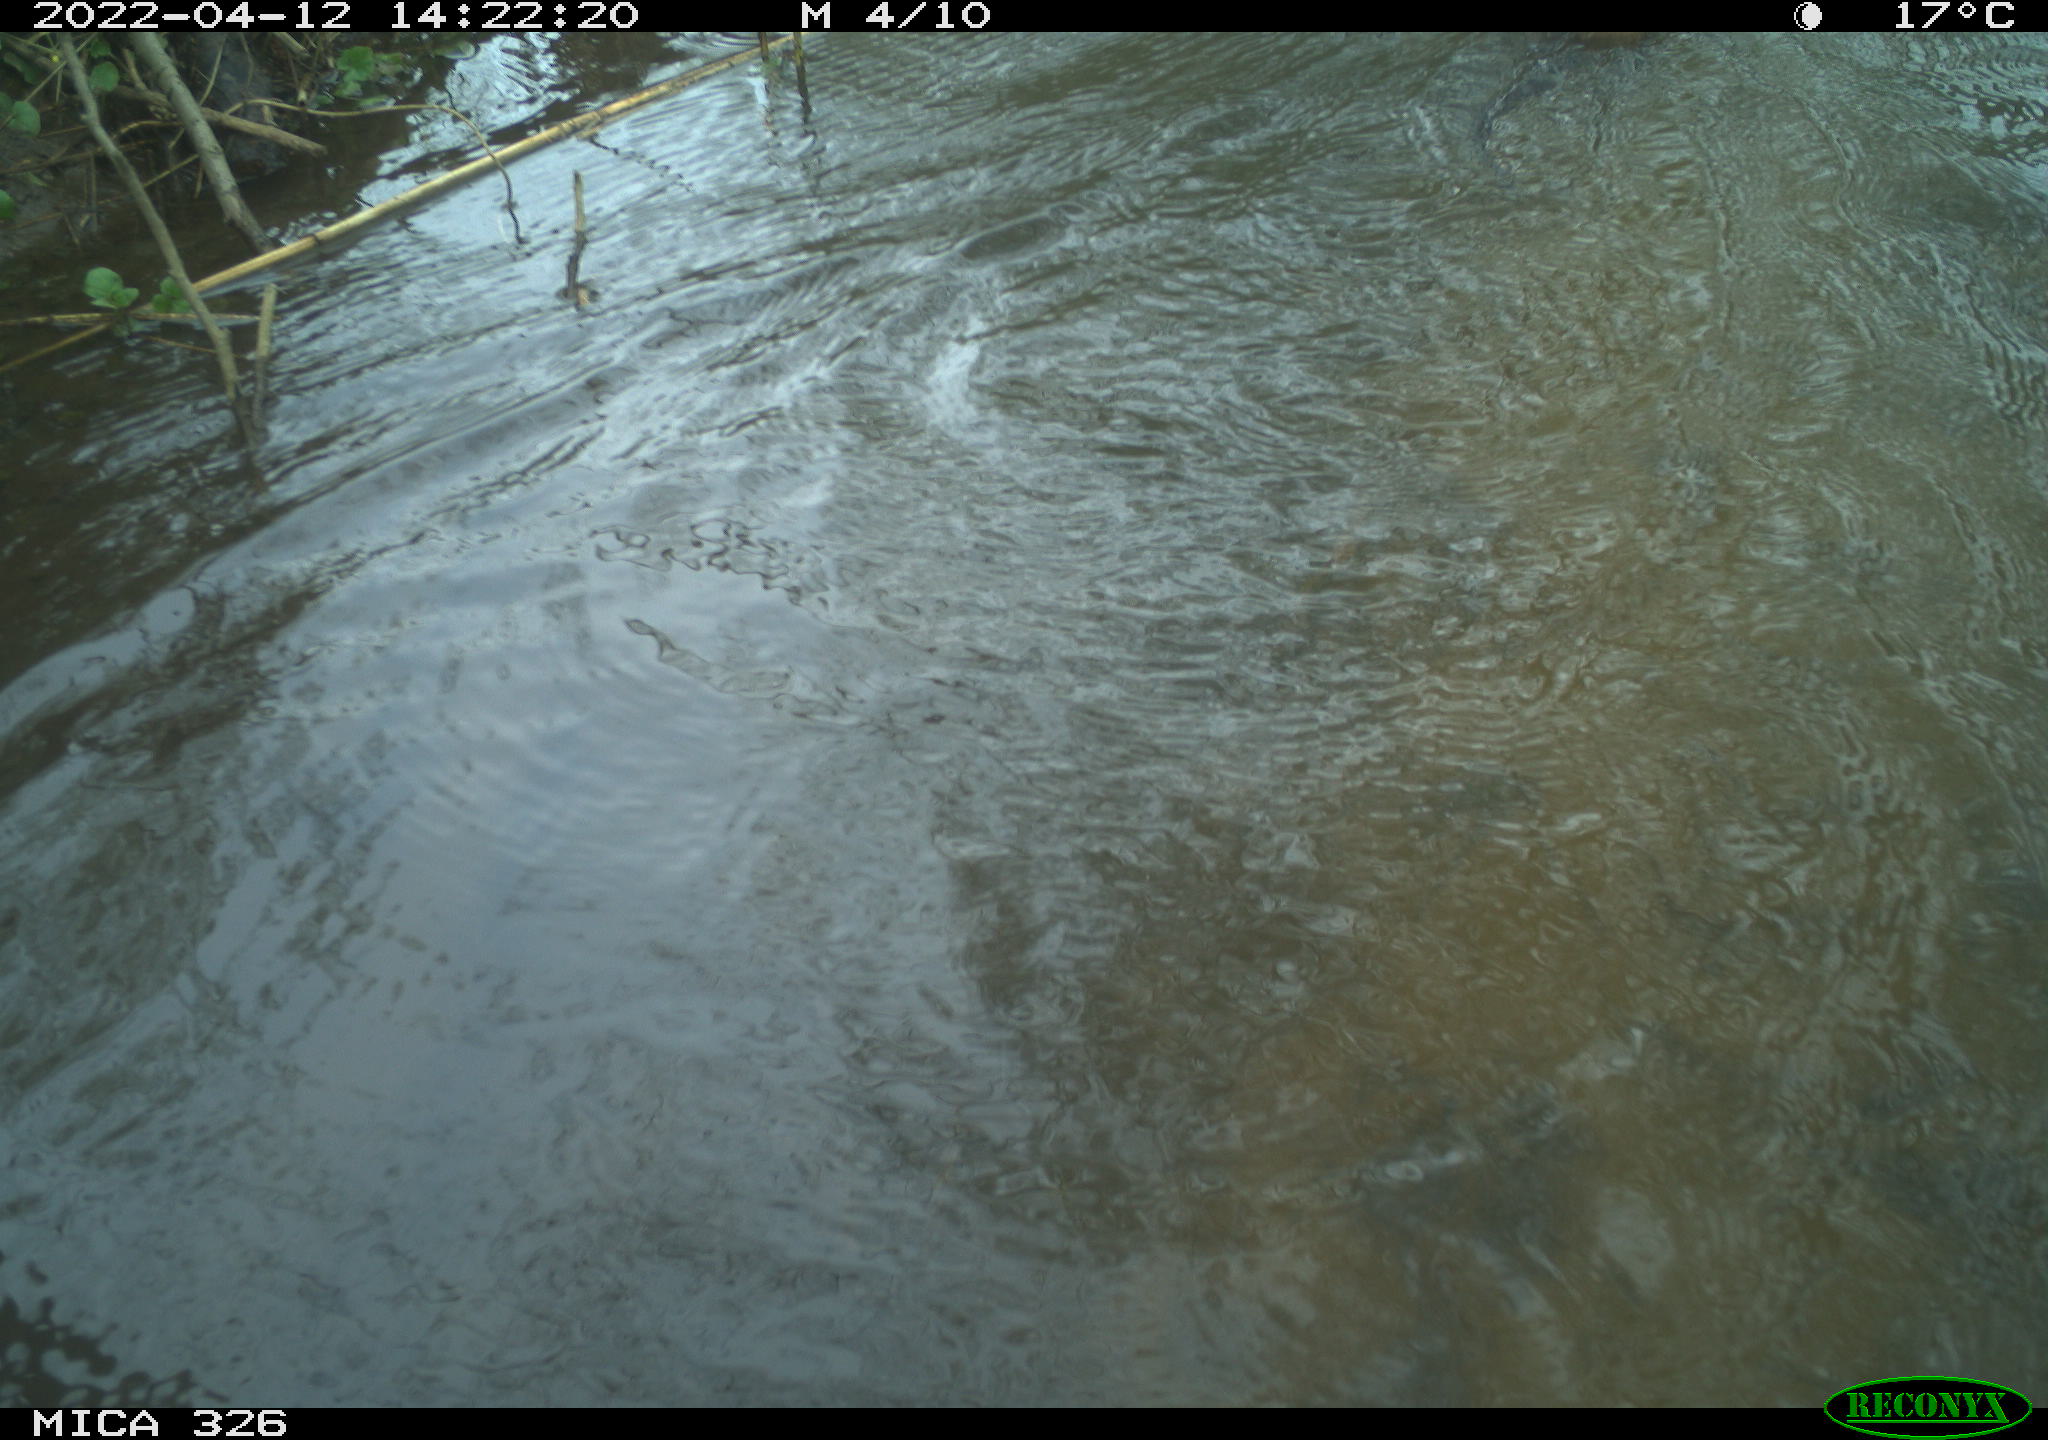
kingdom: Animalia
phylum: Chordata
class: Mammalia
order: Rodentia
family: Cricetidae
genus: Ondatra
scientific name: Ondatra zibethicus
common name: Muskrat
